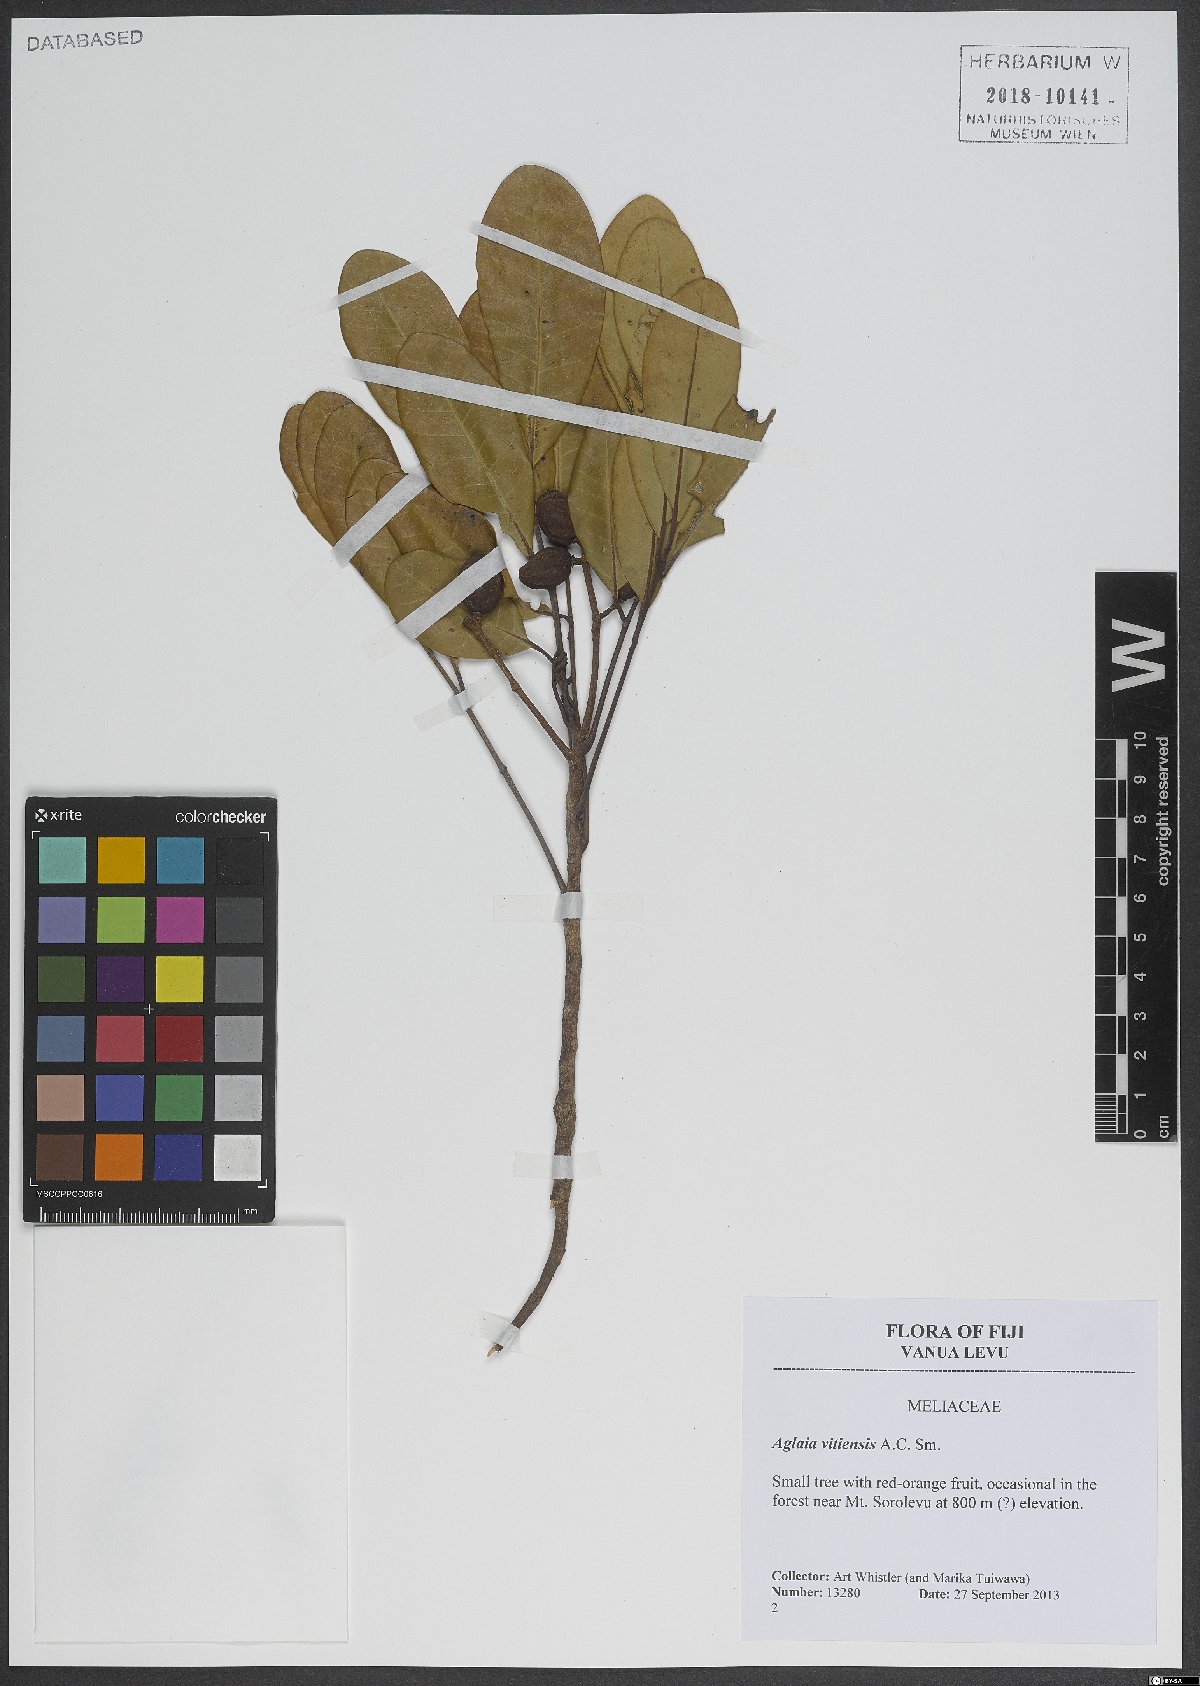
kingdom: Plantae
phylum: Tracheophyta
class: Magnoliopsida
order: Sapindales
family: Meliaceae
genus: Aglaia
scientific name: Aglaia vitiensis
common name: Lindiyango
